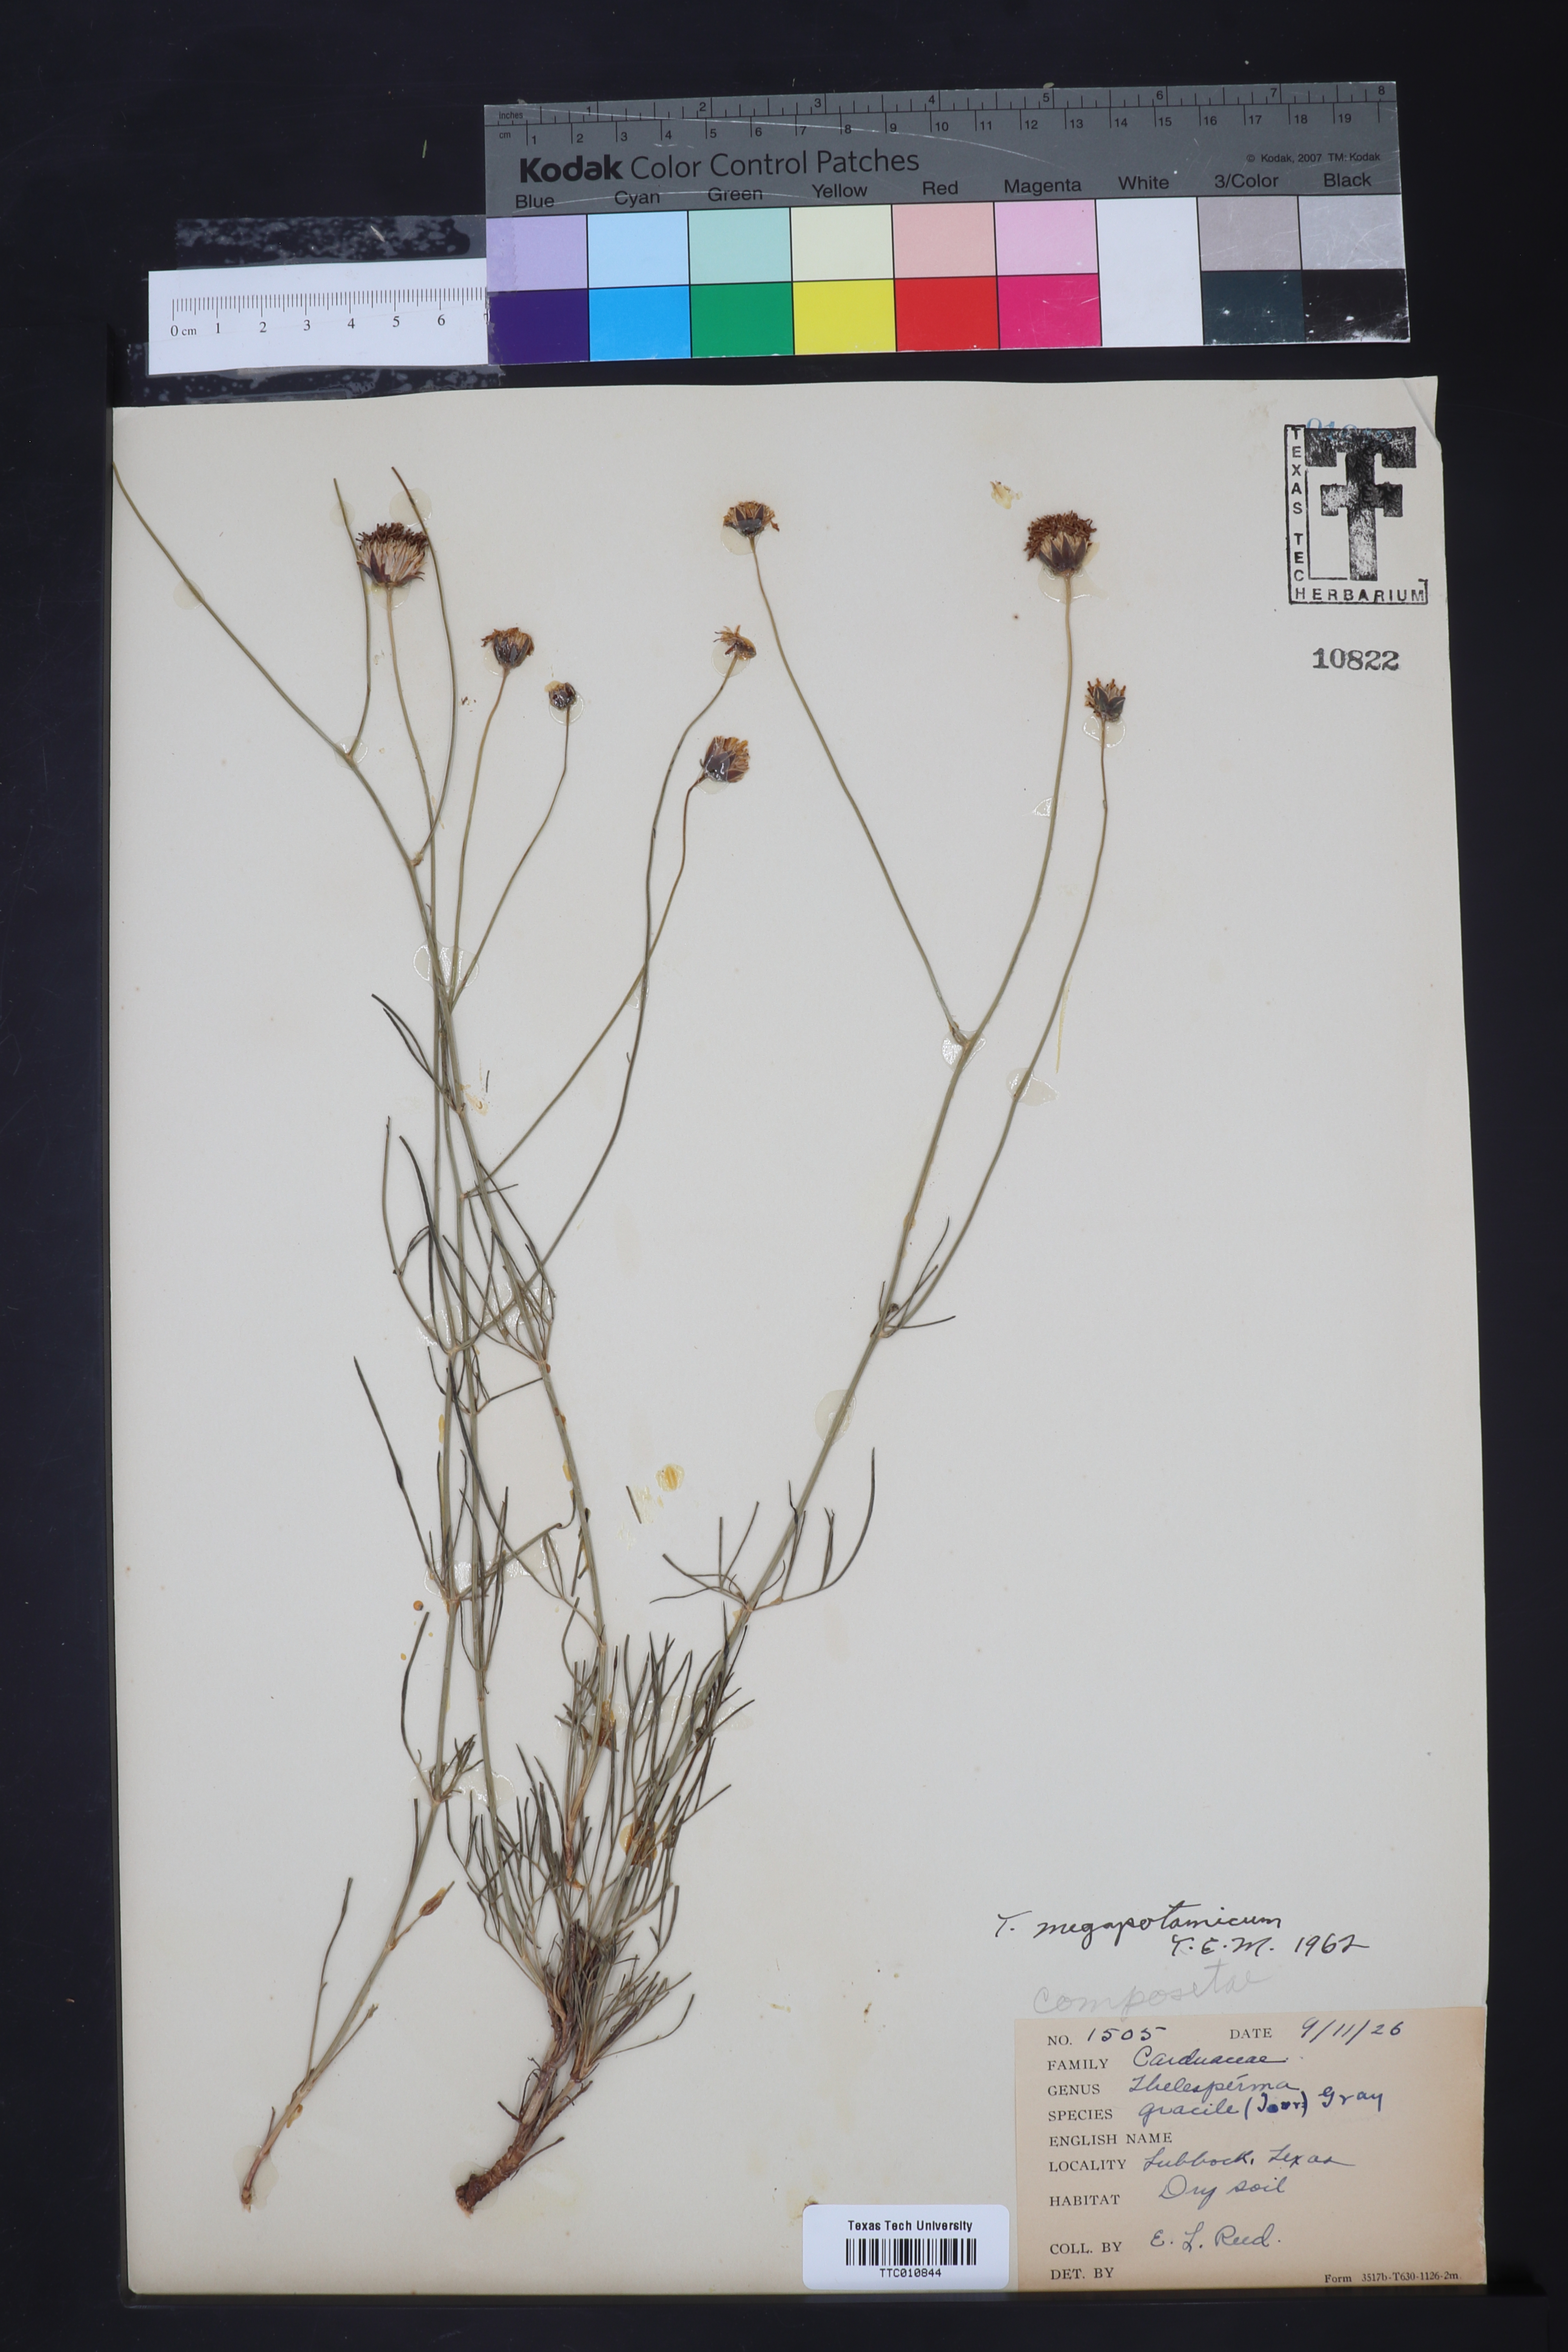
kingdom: Plantae
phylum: Tracheophyta
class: Magnoliopsida
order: Asterales
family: Asteraceae
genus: Thelesperma
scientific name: Thelesperma megapotamicum
